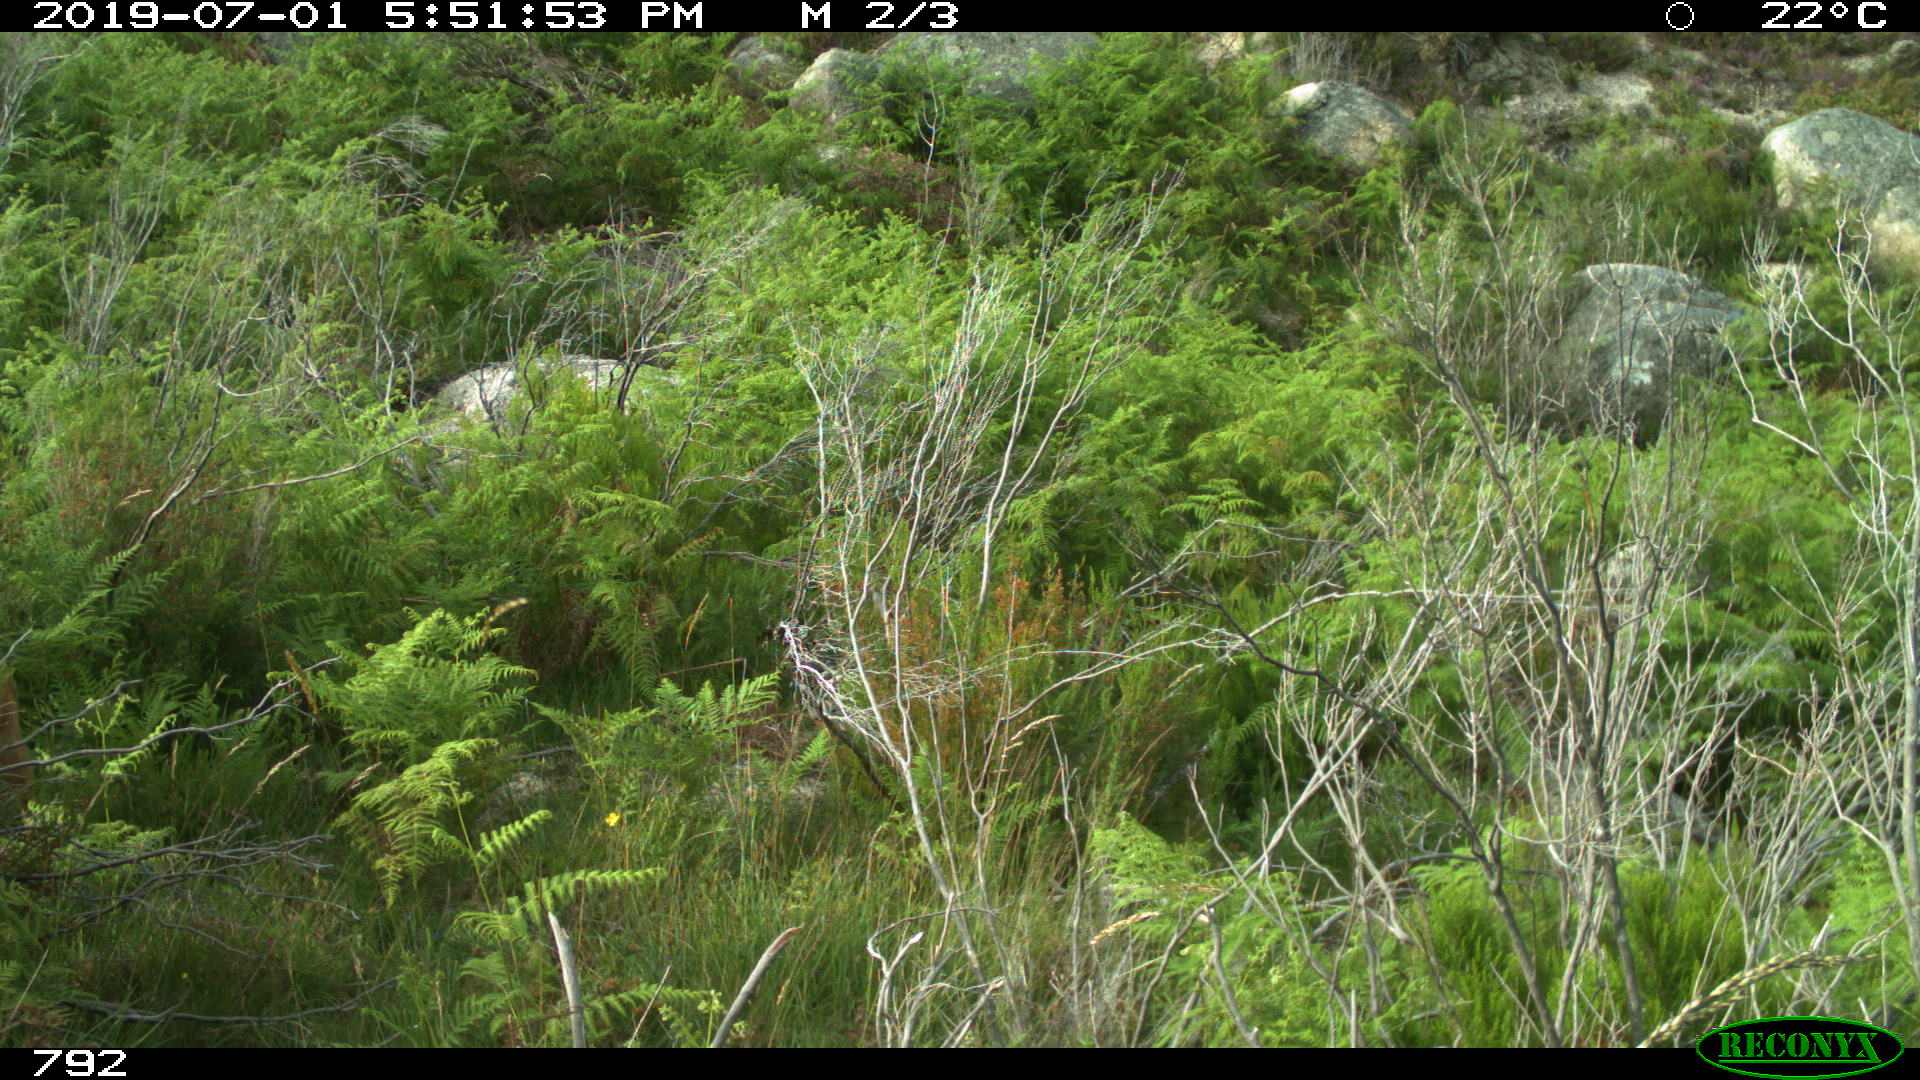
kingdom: Animalia
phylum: Chordata
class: Mammalia
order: Artiodactyla
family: Cervidae
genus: Capreolus
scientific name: Capreolus capreolus
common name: Western roe deer
